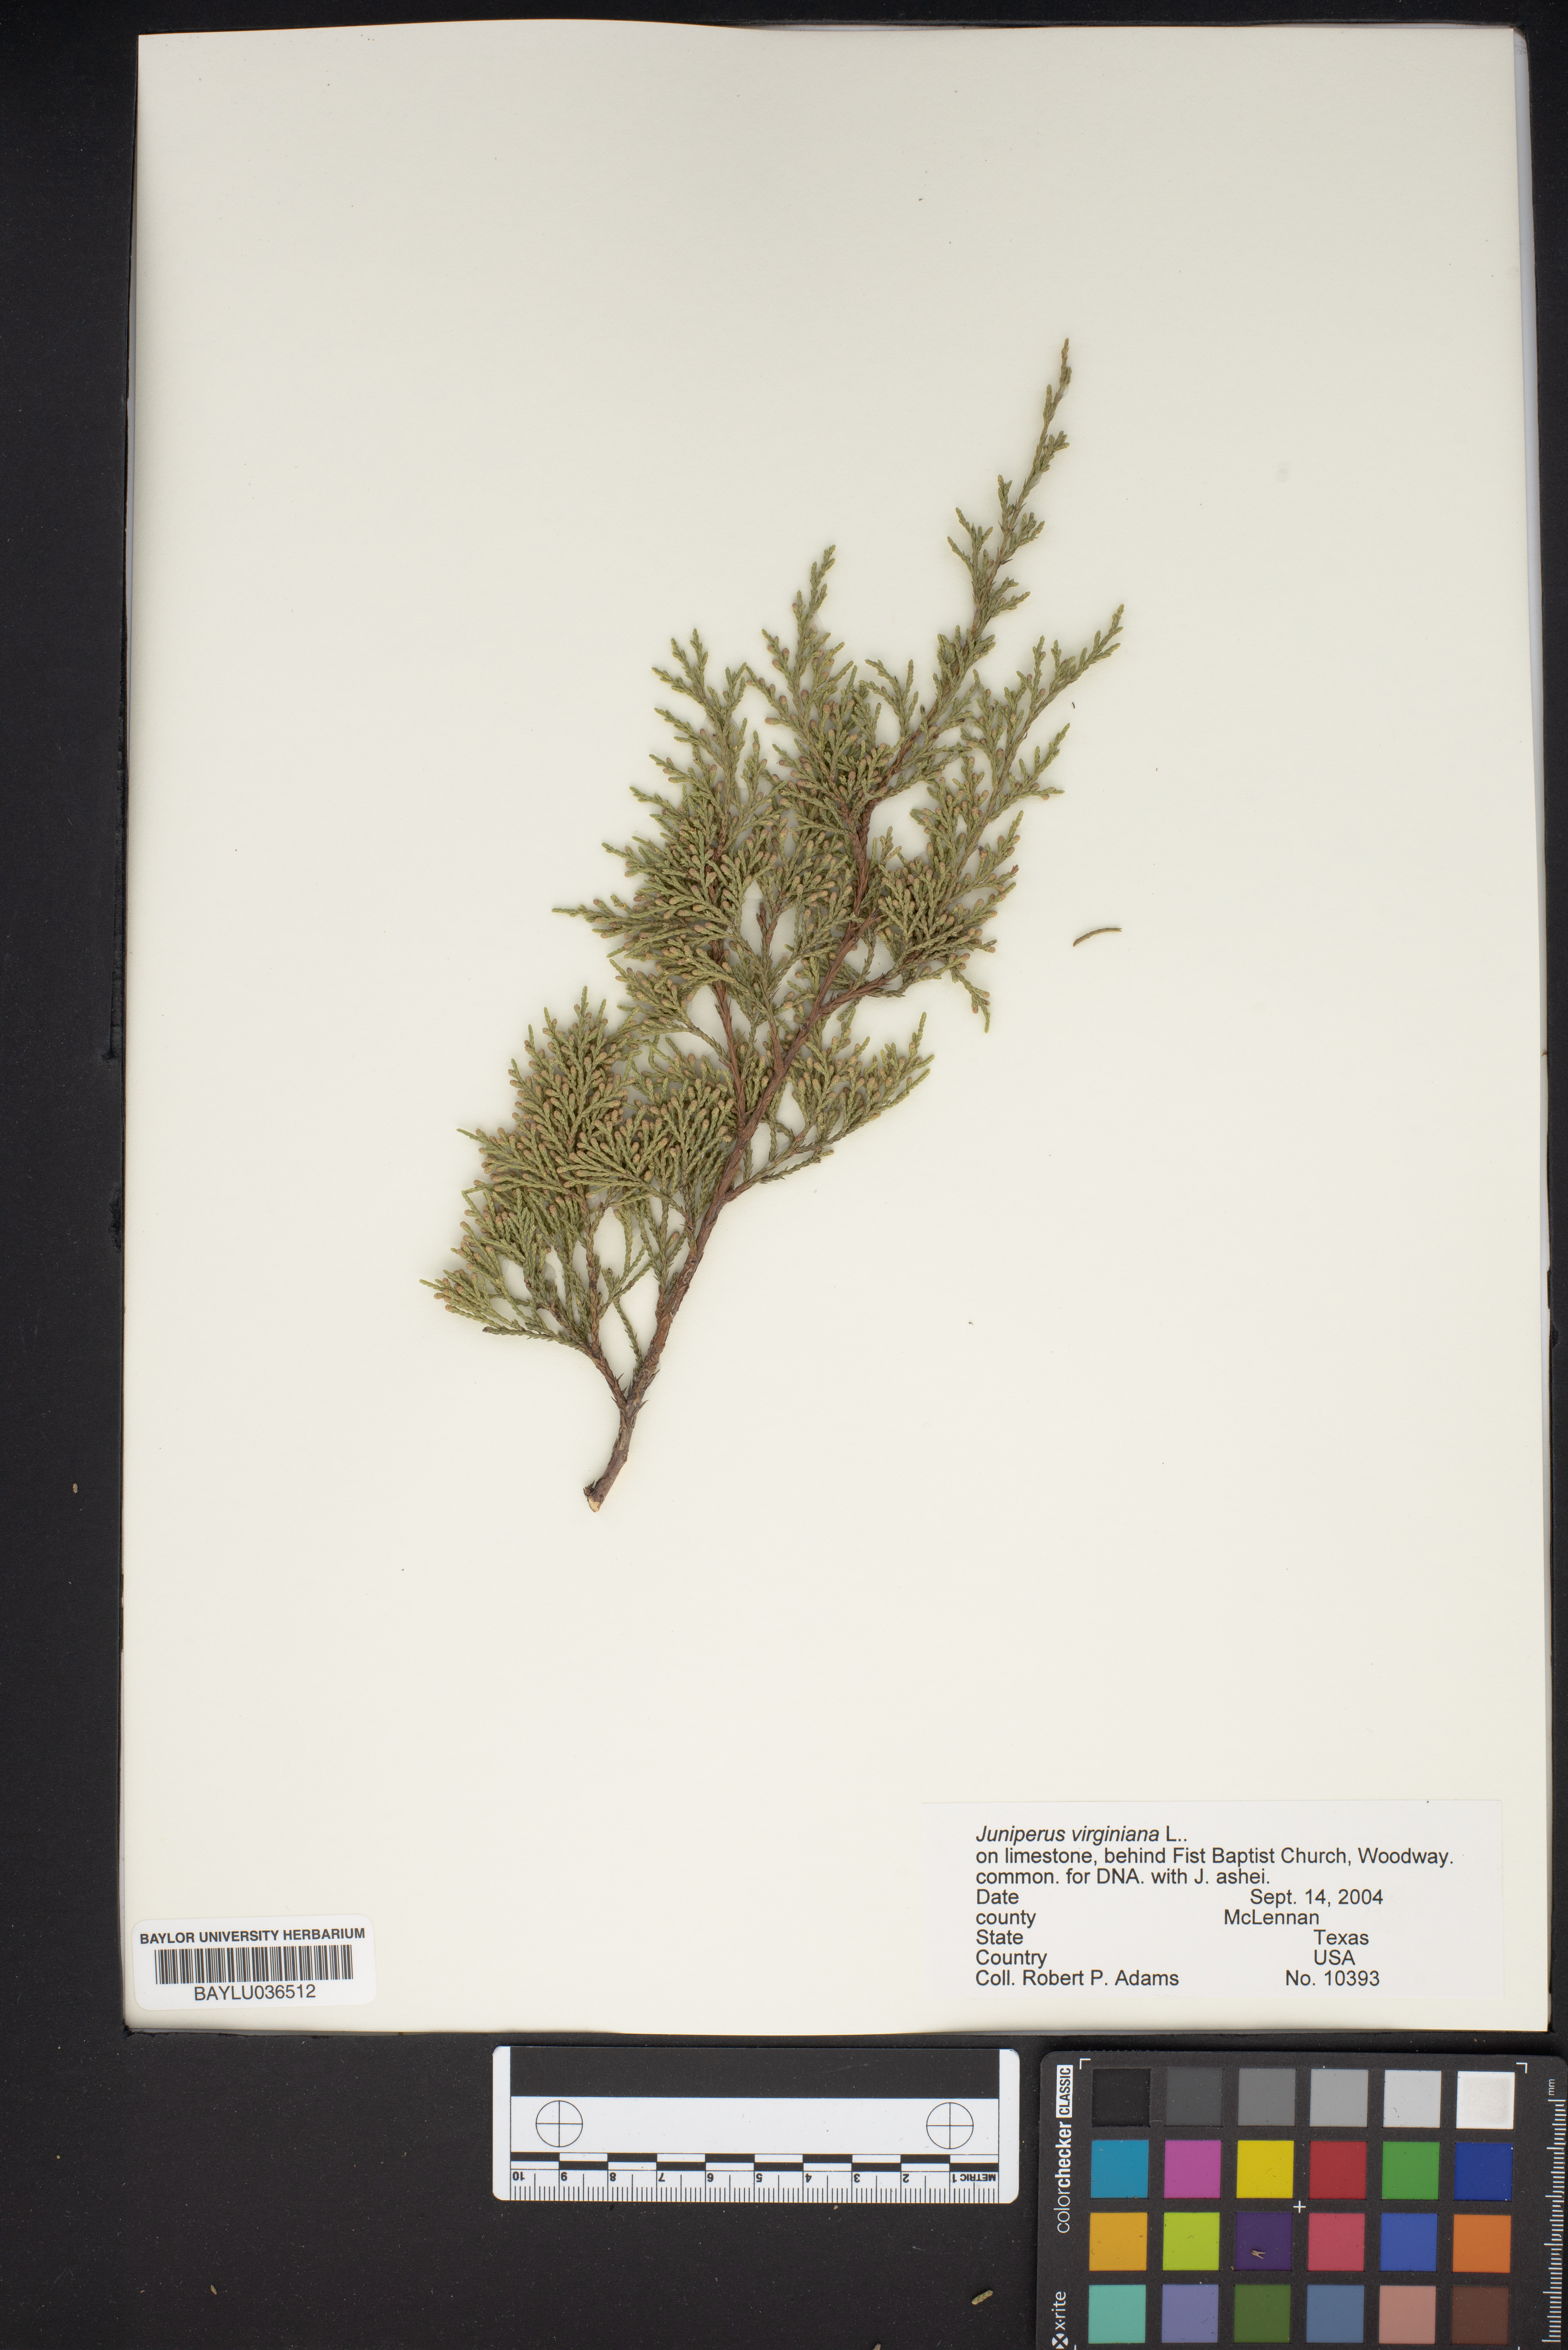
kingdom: Plantae
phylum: Tracheophyta
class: Pinopsida
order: Pinales
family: Cupressaceae
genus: Juniperus
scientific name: Juniperus virginiana
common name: Red juniper
